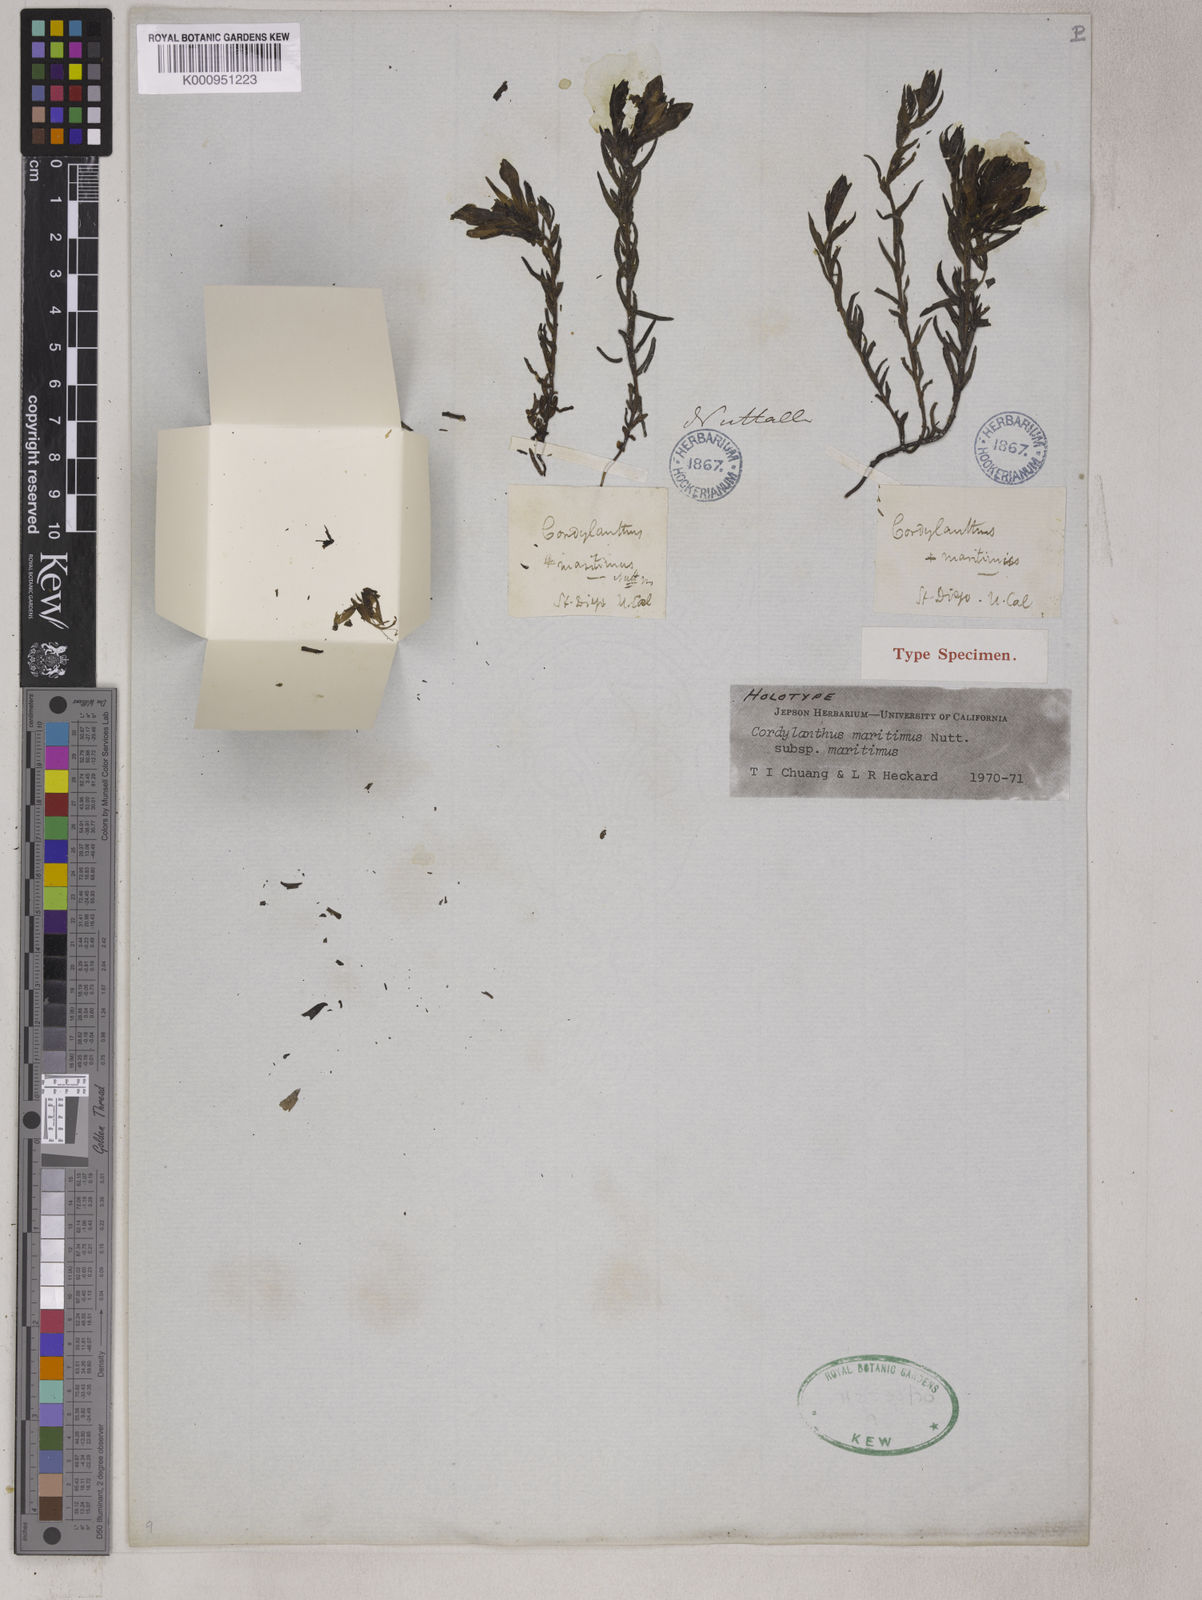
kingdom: Plantae
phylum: Tracheophyta
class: Magnoliopsida
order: Lamiales
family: Orobanchaceae
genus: Chloropyron
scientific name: Chloropyron maritimum
